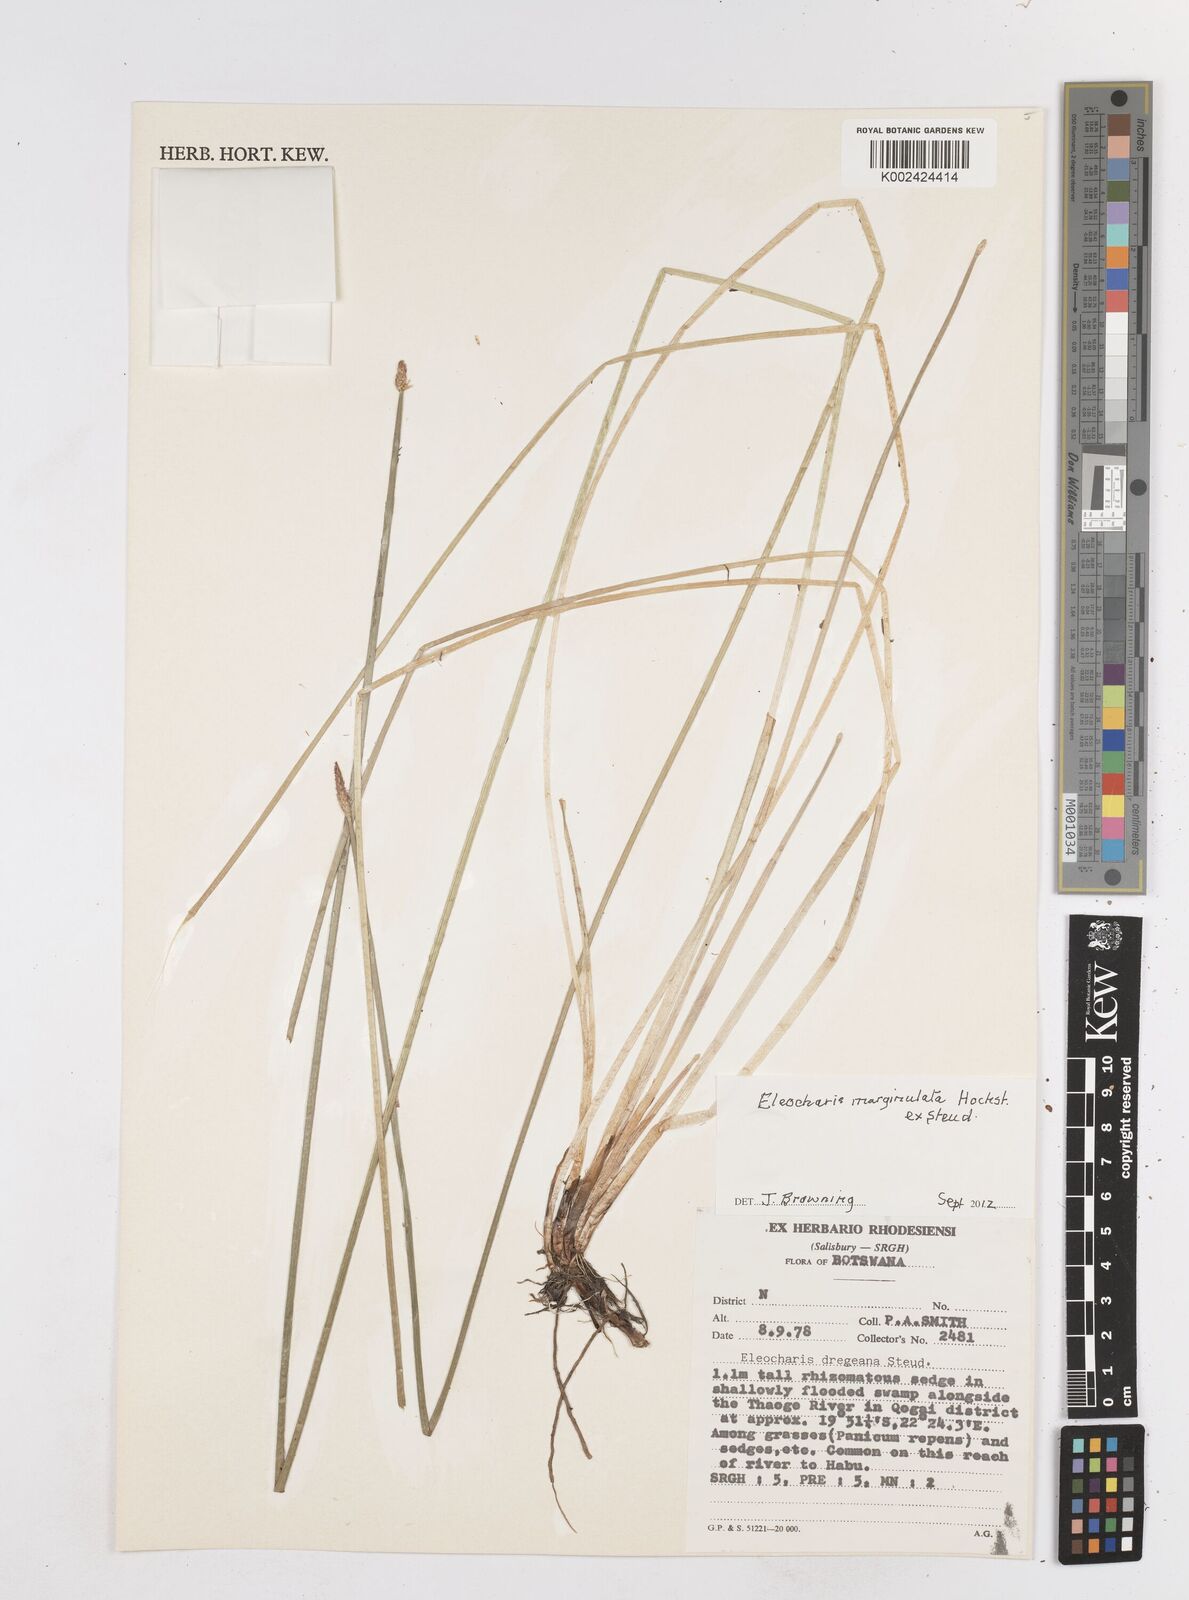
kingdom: Plantae
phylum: Tracheophyta
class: Liliopsida
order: Poales
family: Cyperaceae
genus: Eleocharis
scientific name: Eleocharis marginulata
